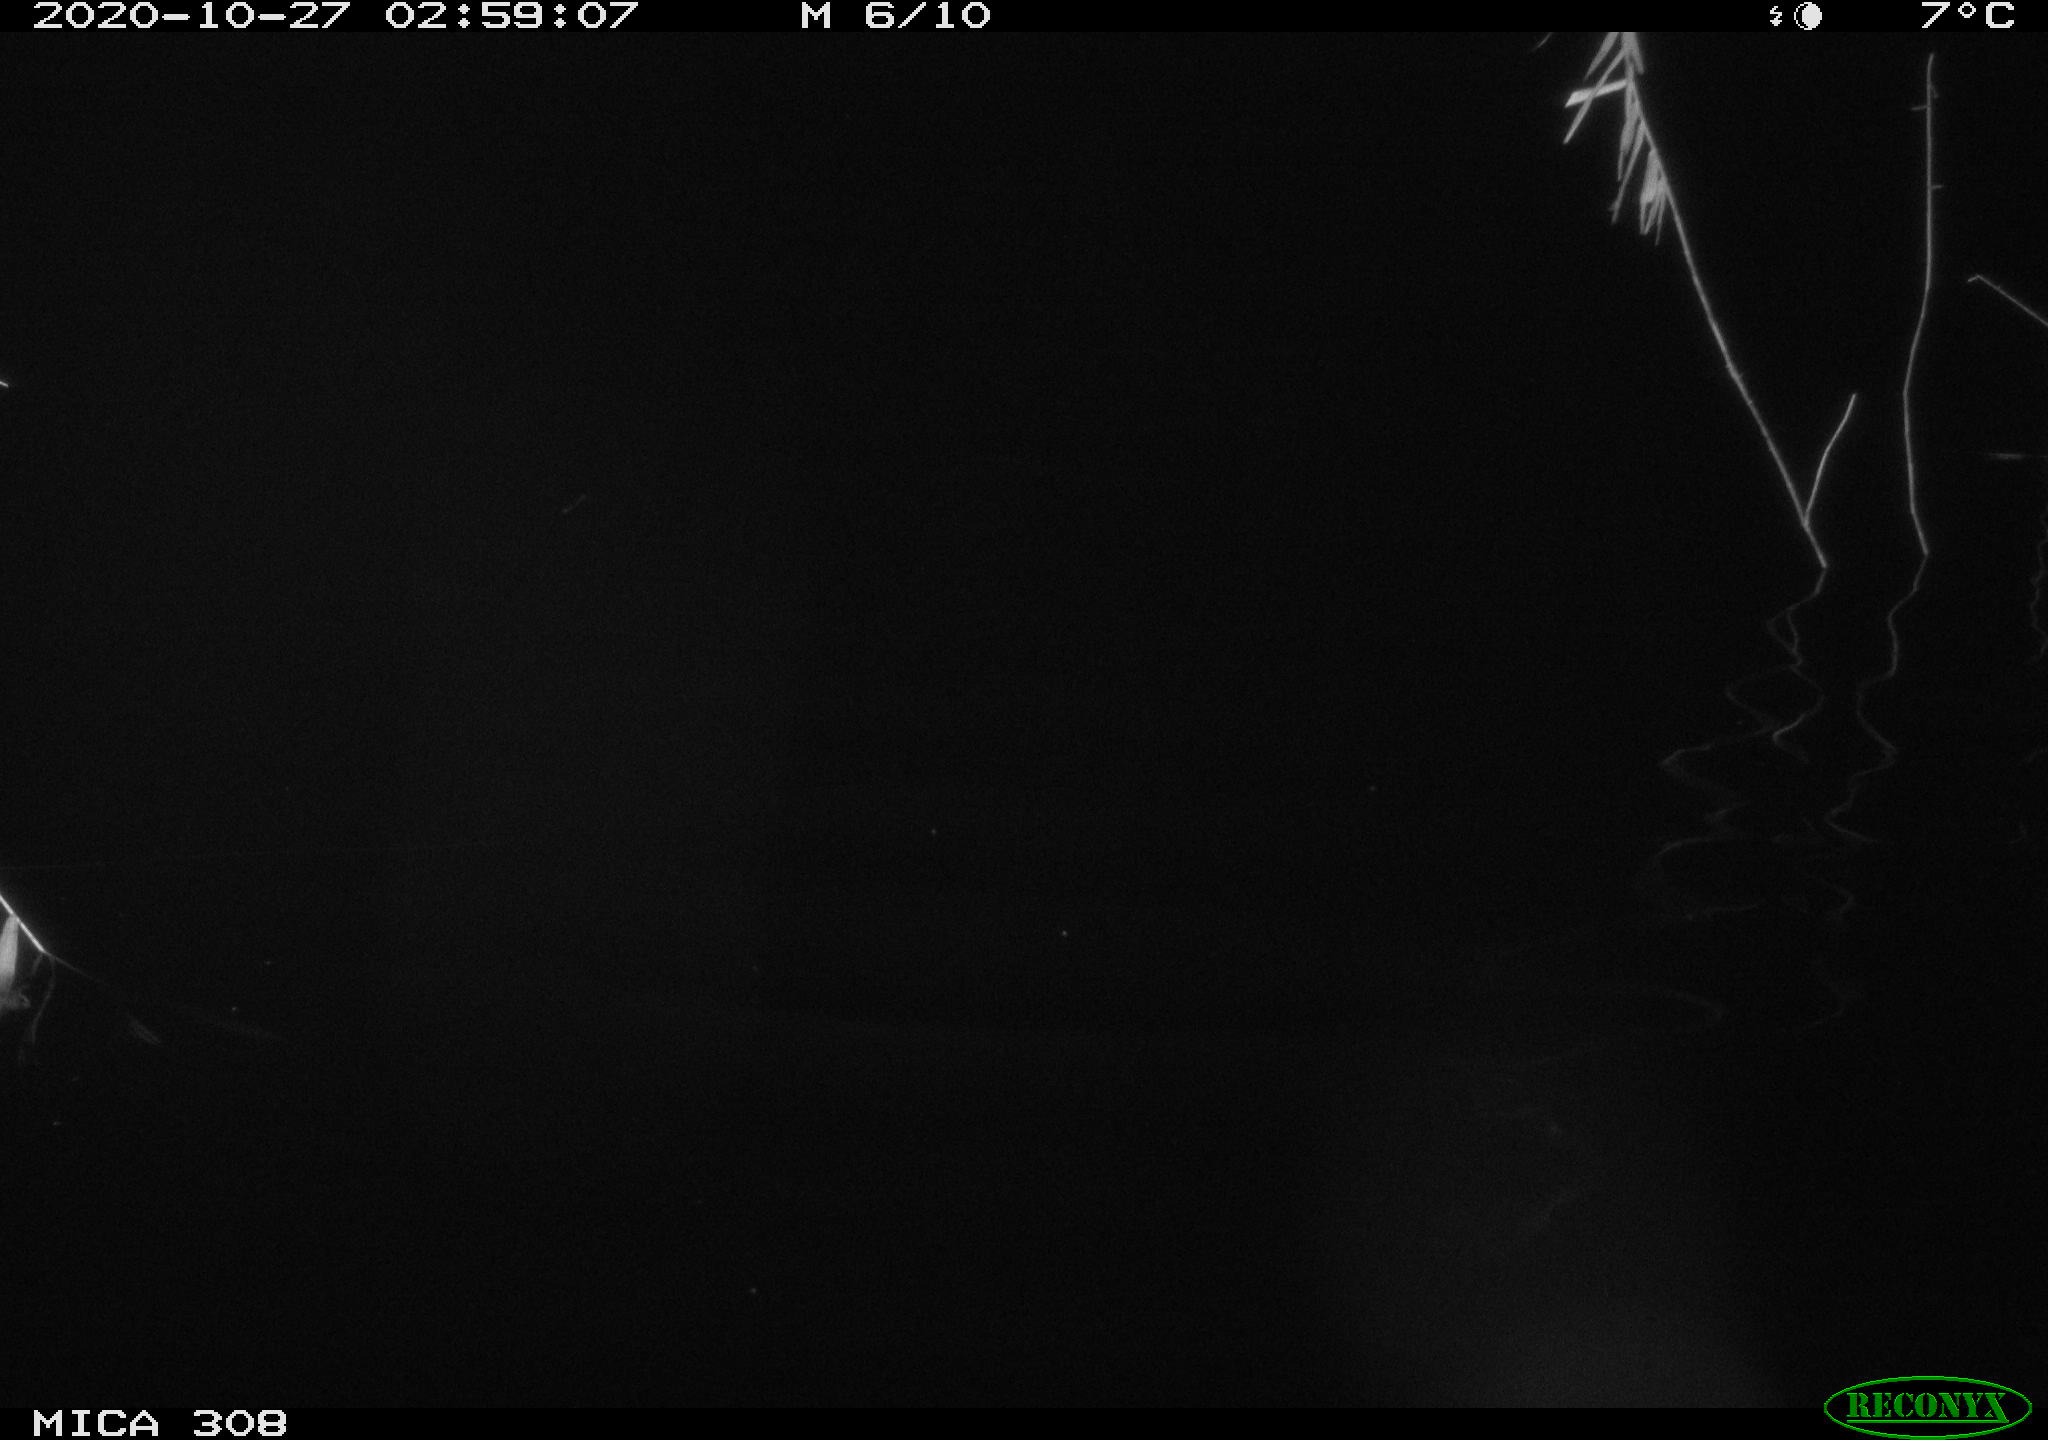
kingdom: Animalia
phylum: Chordata
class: Aves
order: Anseriformes
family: Anatidae
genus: Anas
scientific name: Anas platyrhynchos
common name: Mallard
